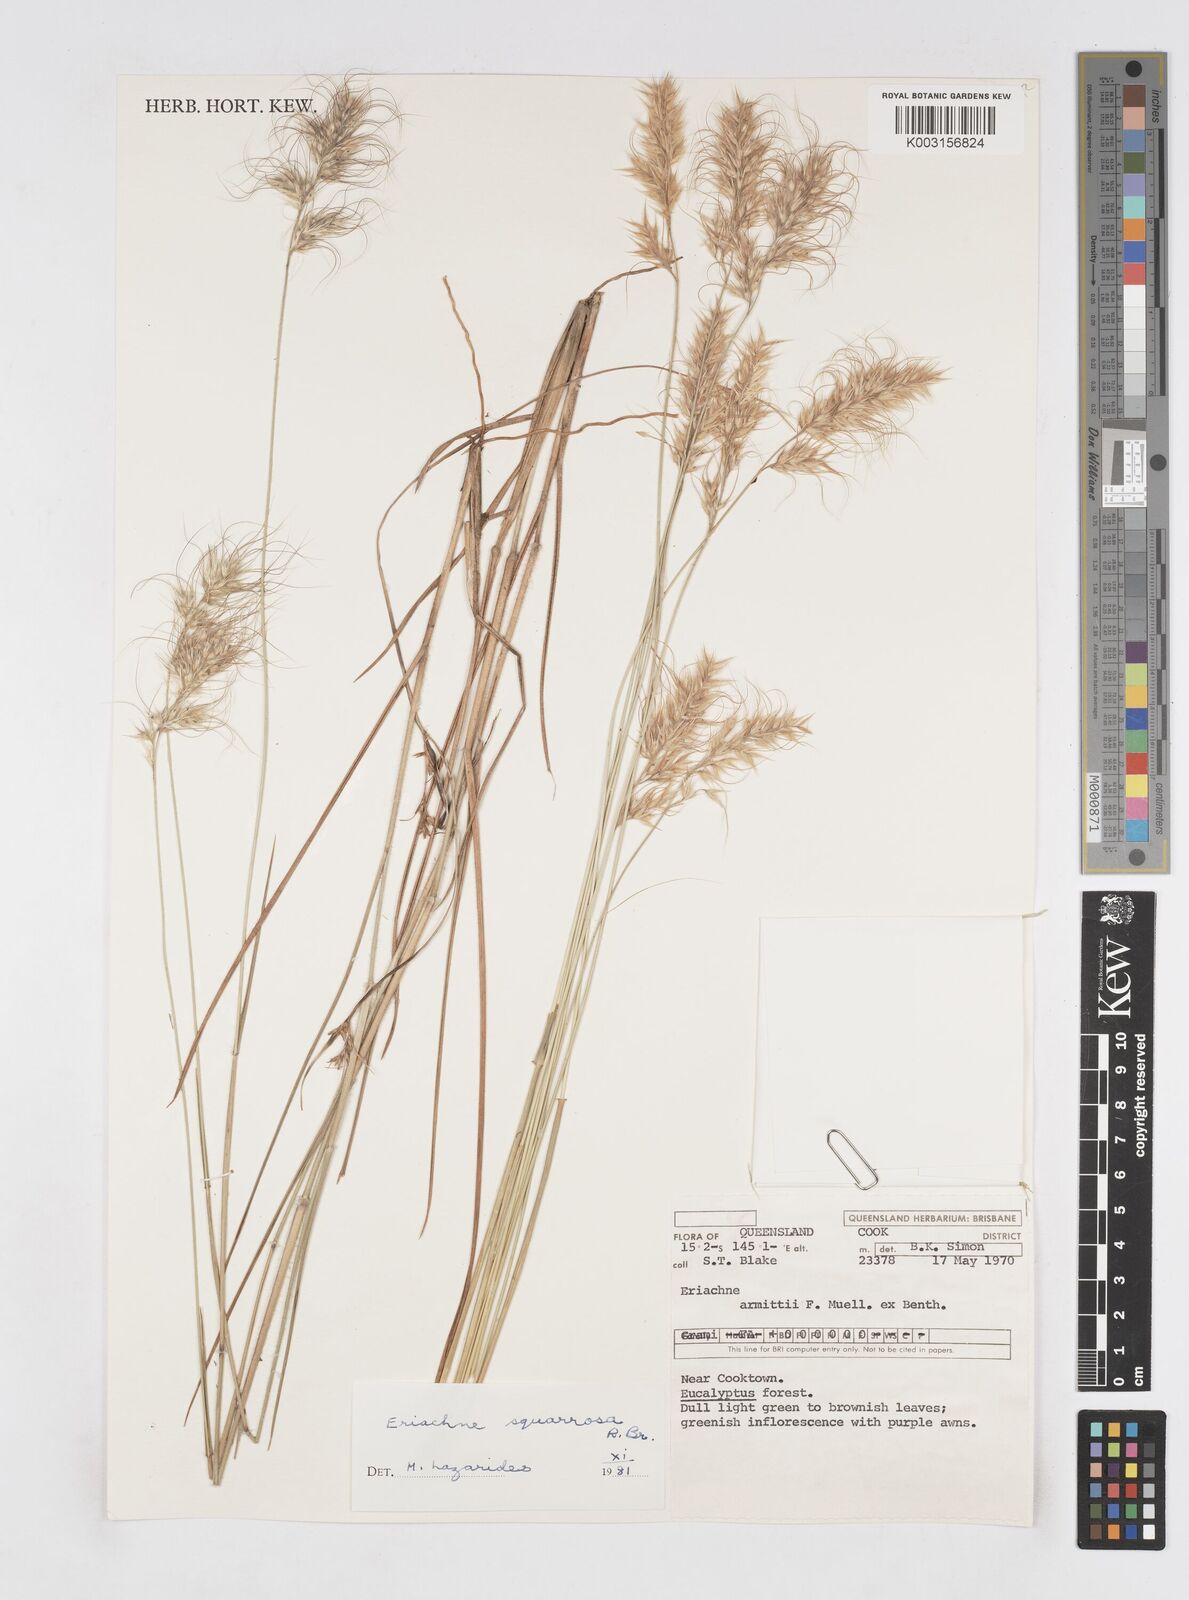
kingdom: Plantae
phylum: Tracheophyta
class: Liliopsida
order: Poales
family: Poaceae
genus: Eriachne
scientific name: Eriachne squarrosa
